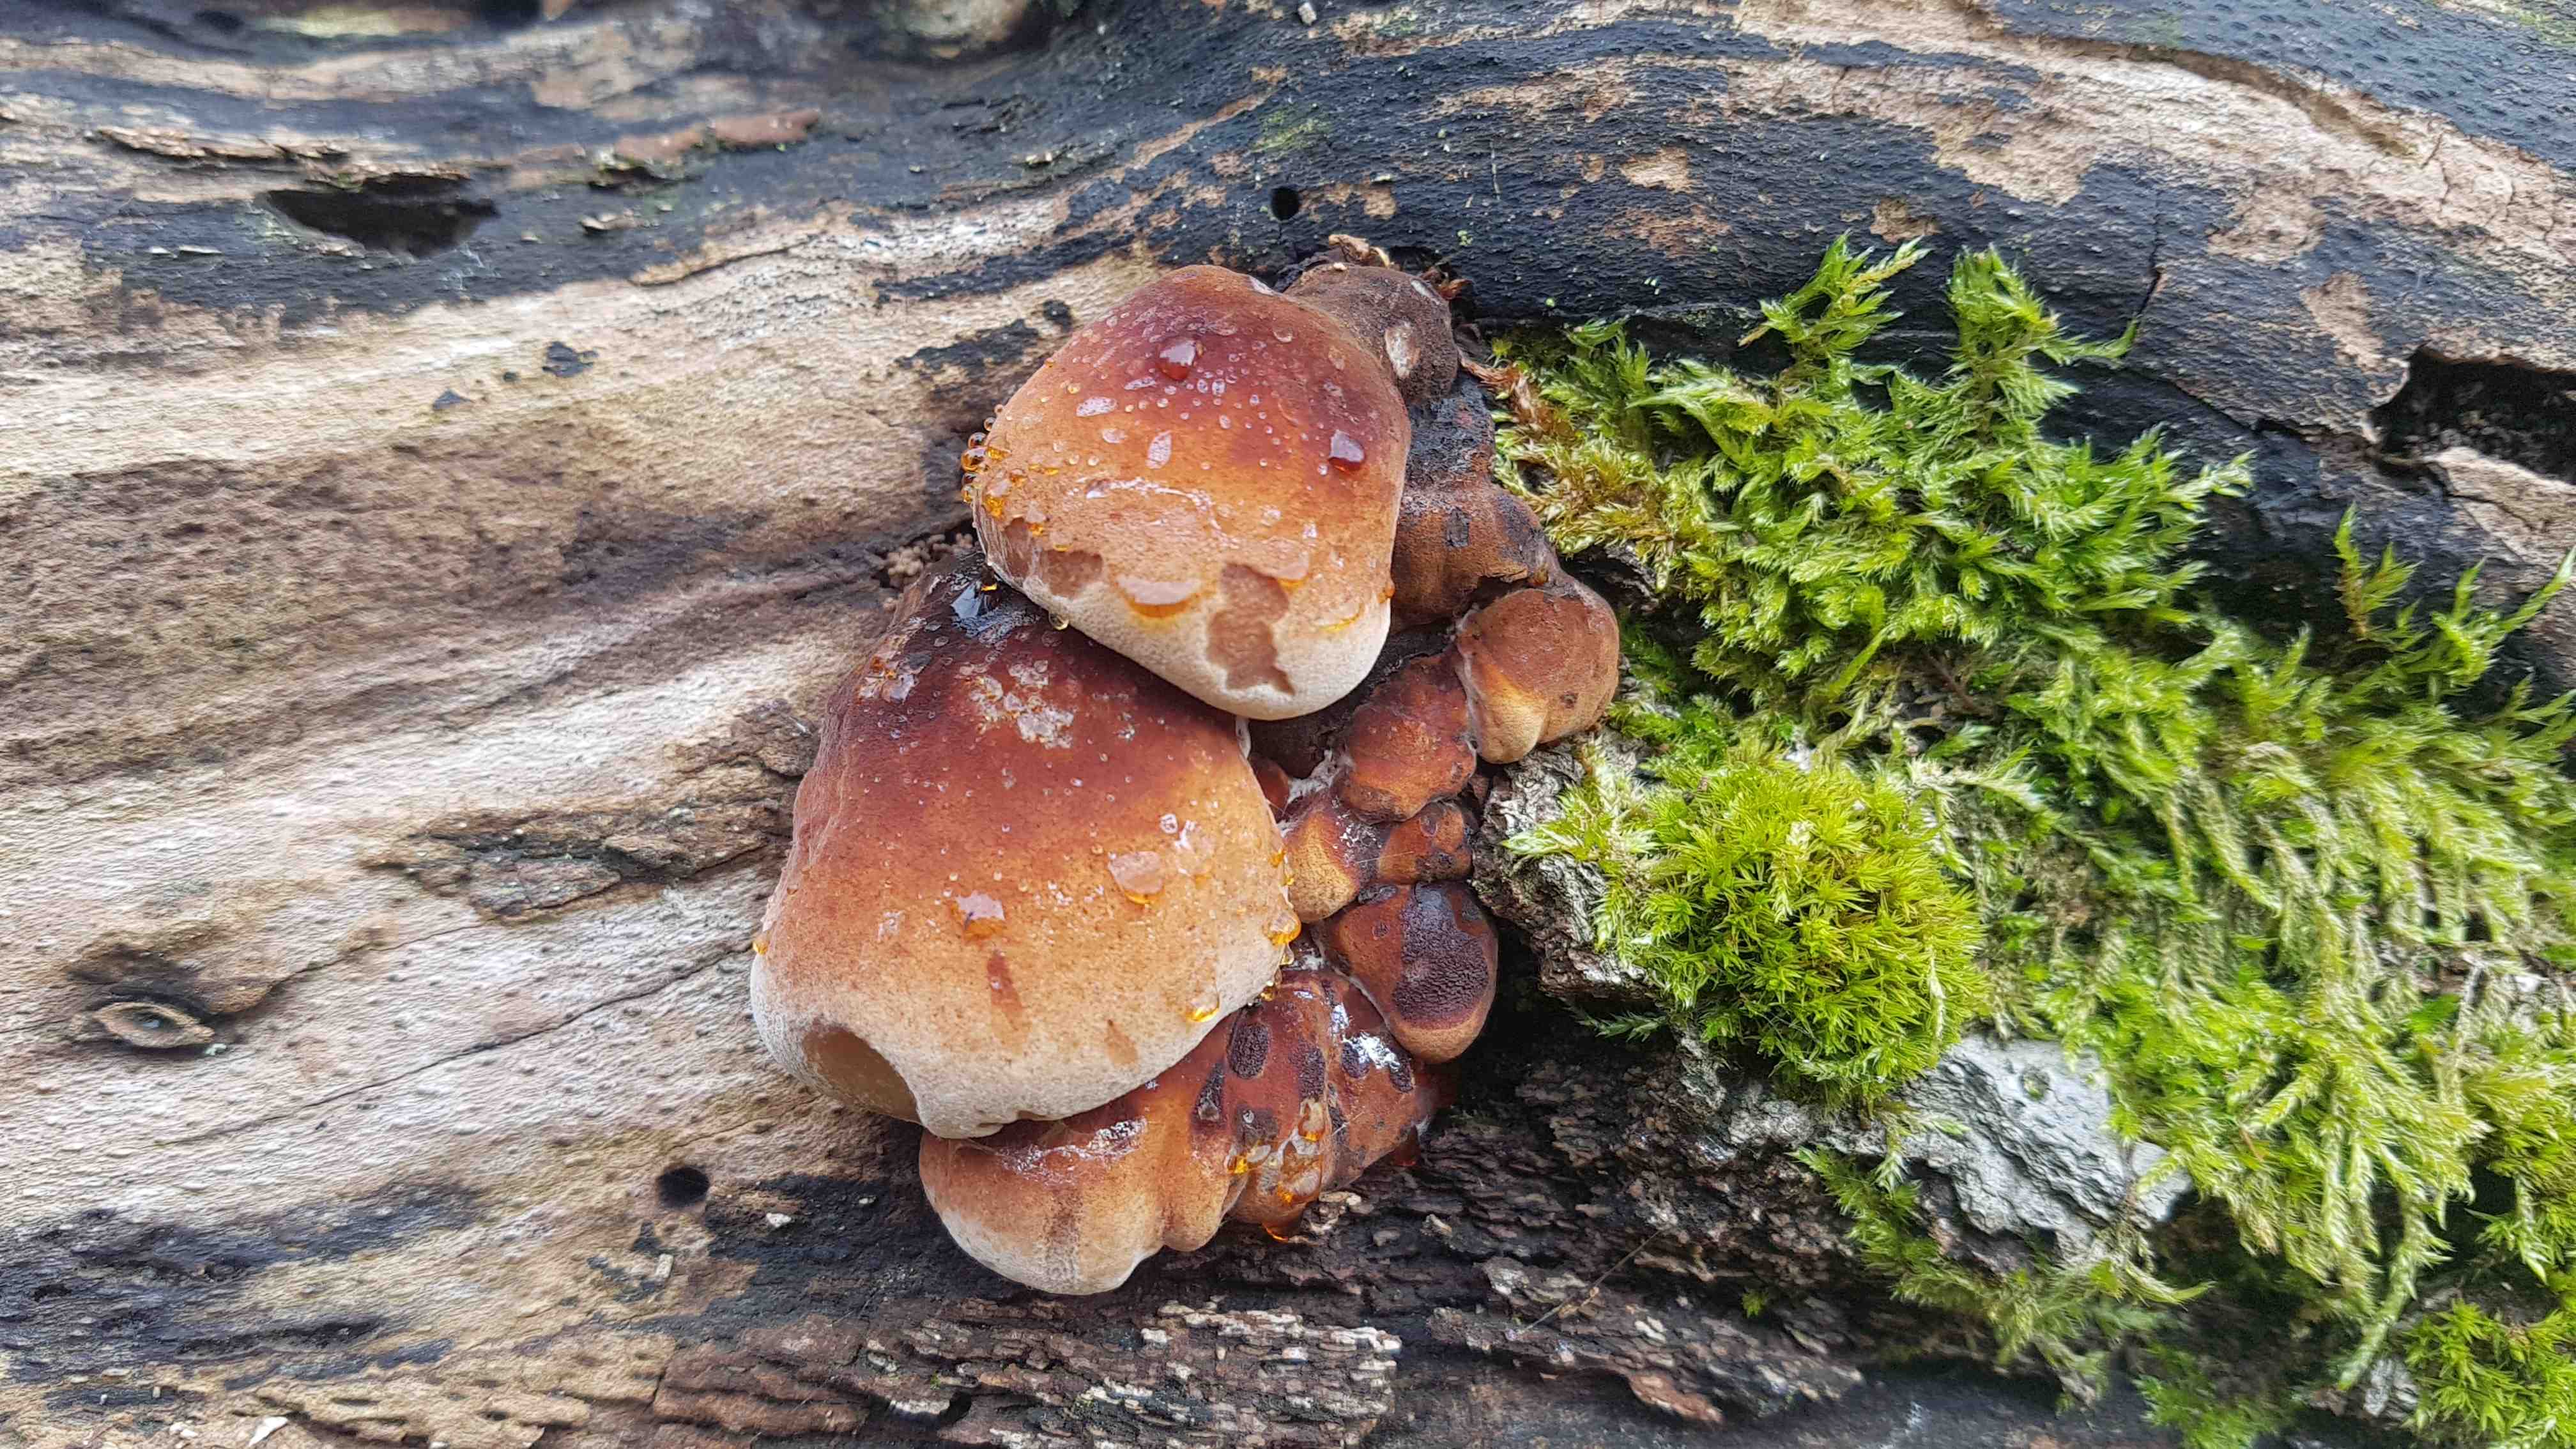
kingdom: Fungi
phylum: Basidiomycota
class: Agaricomycetes
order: Polyporales
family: Ischnodermataceae
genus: Ischnoderma
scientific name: Ischnoderma resinosum
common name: løv-tjæreporesvamp
